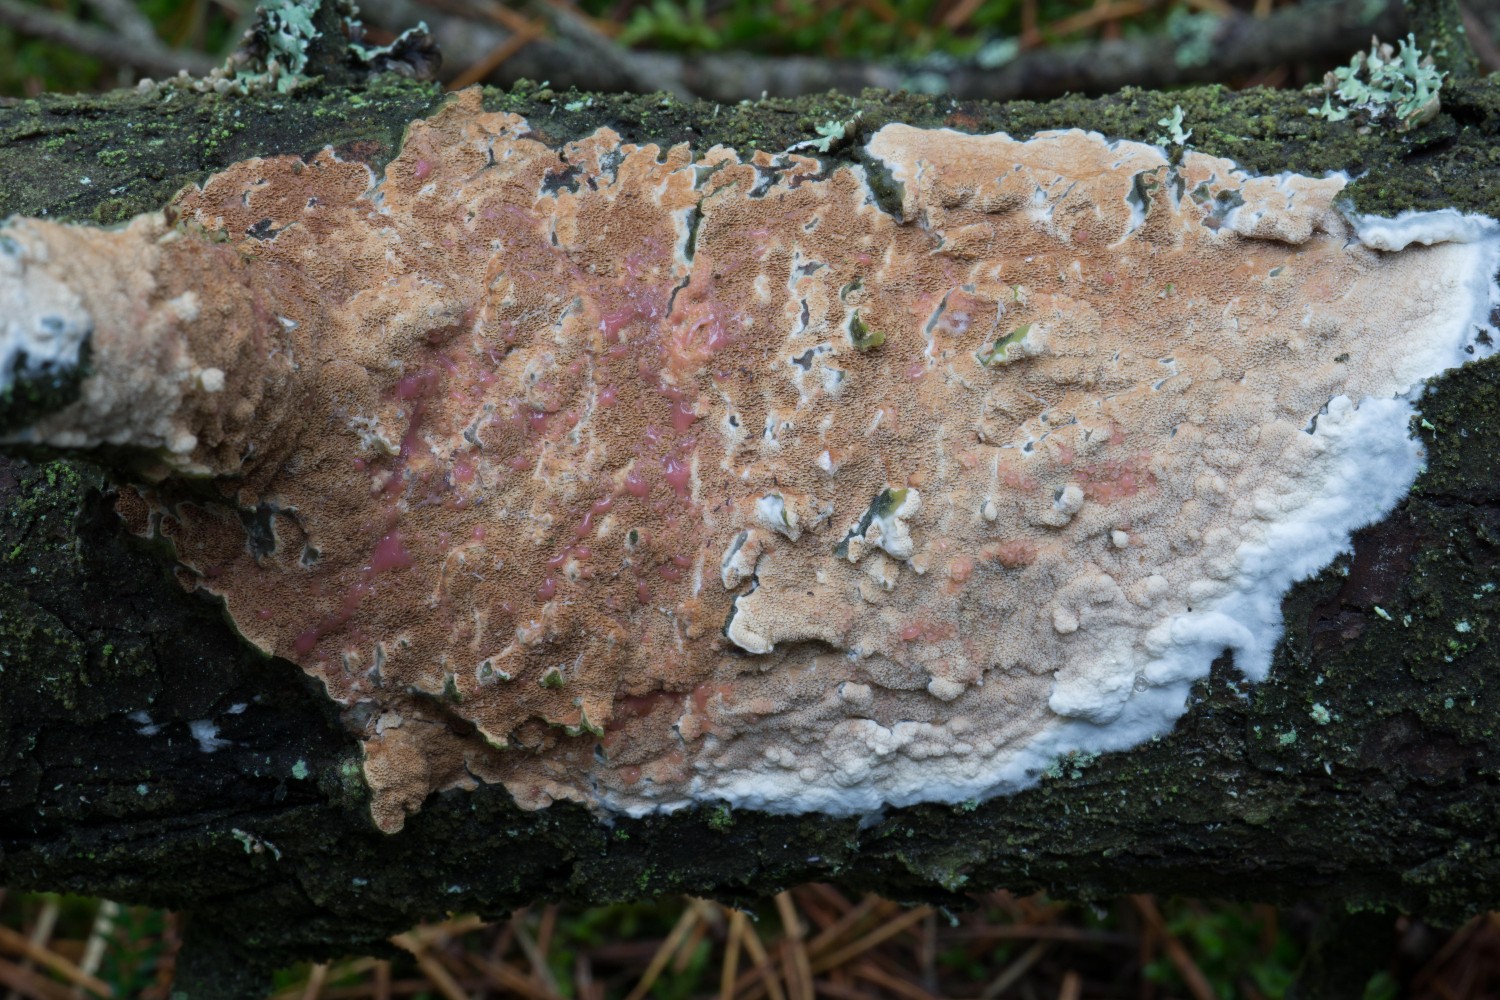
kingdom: Fungi
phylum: Basidiomycota
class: Agaricomycetes
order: Polyporales
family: Irpicaceae
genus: Meruliopsis
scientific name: Meruliopsis taxicola
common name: purpurbrun foldporesvamp
